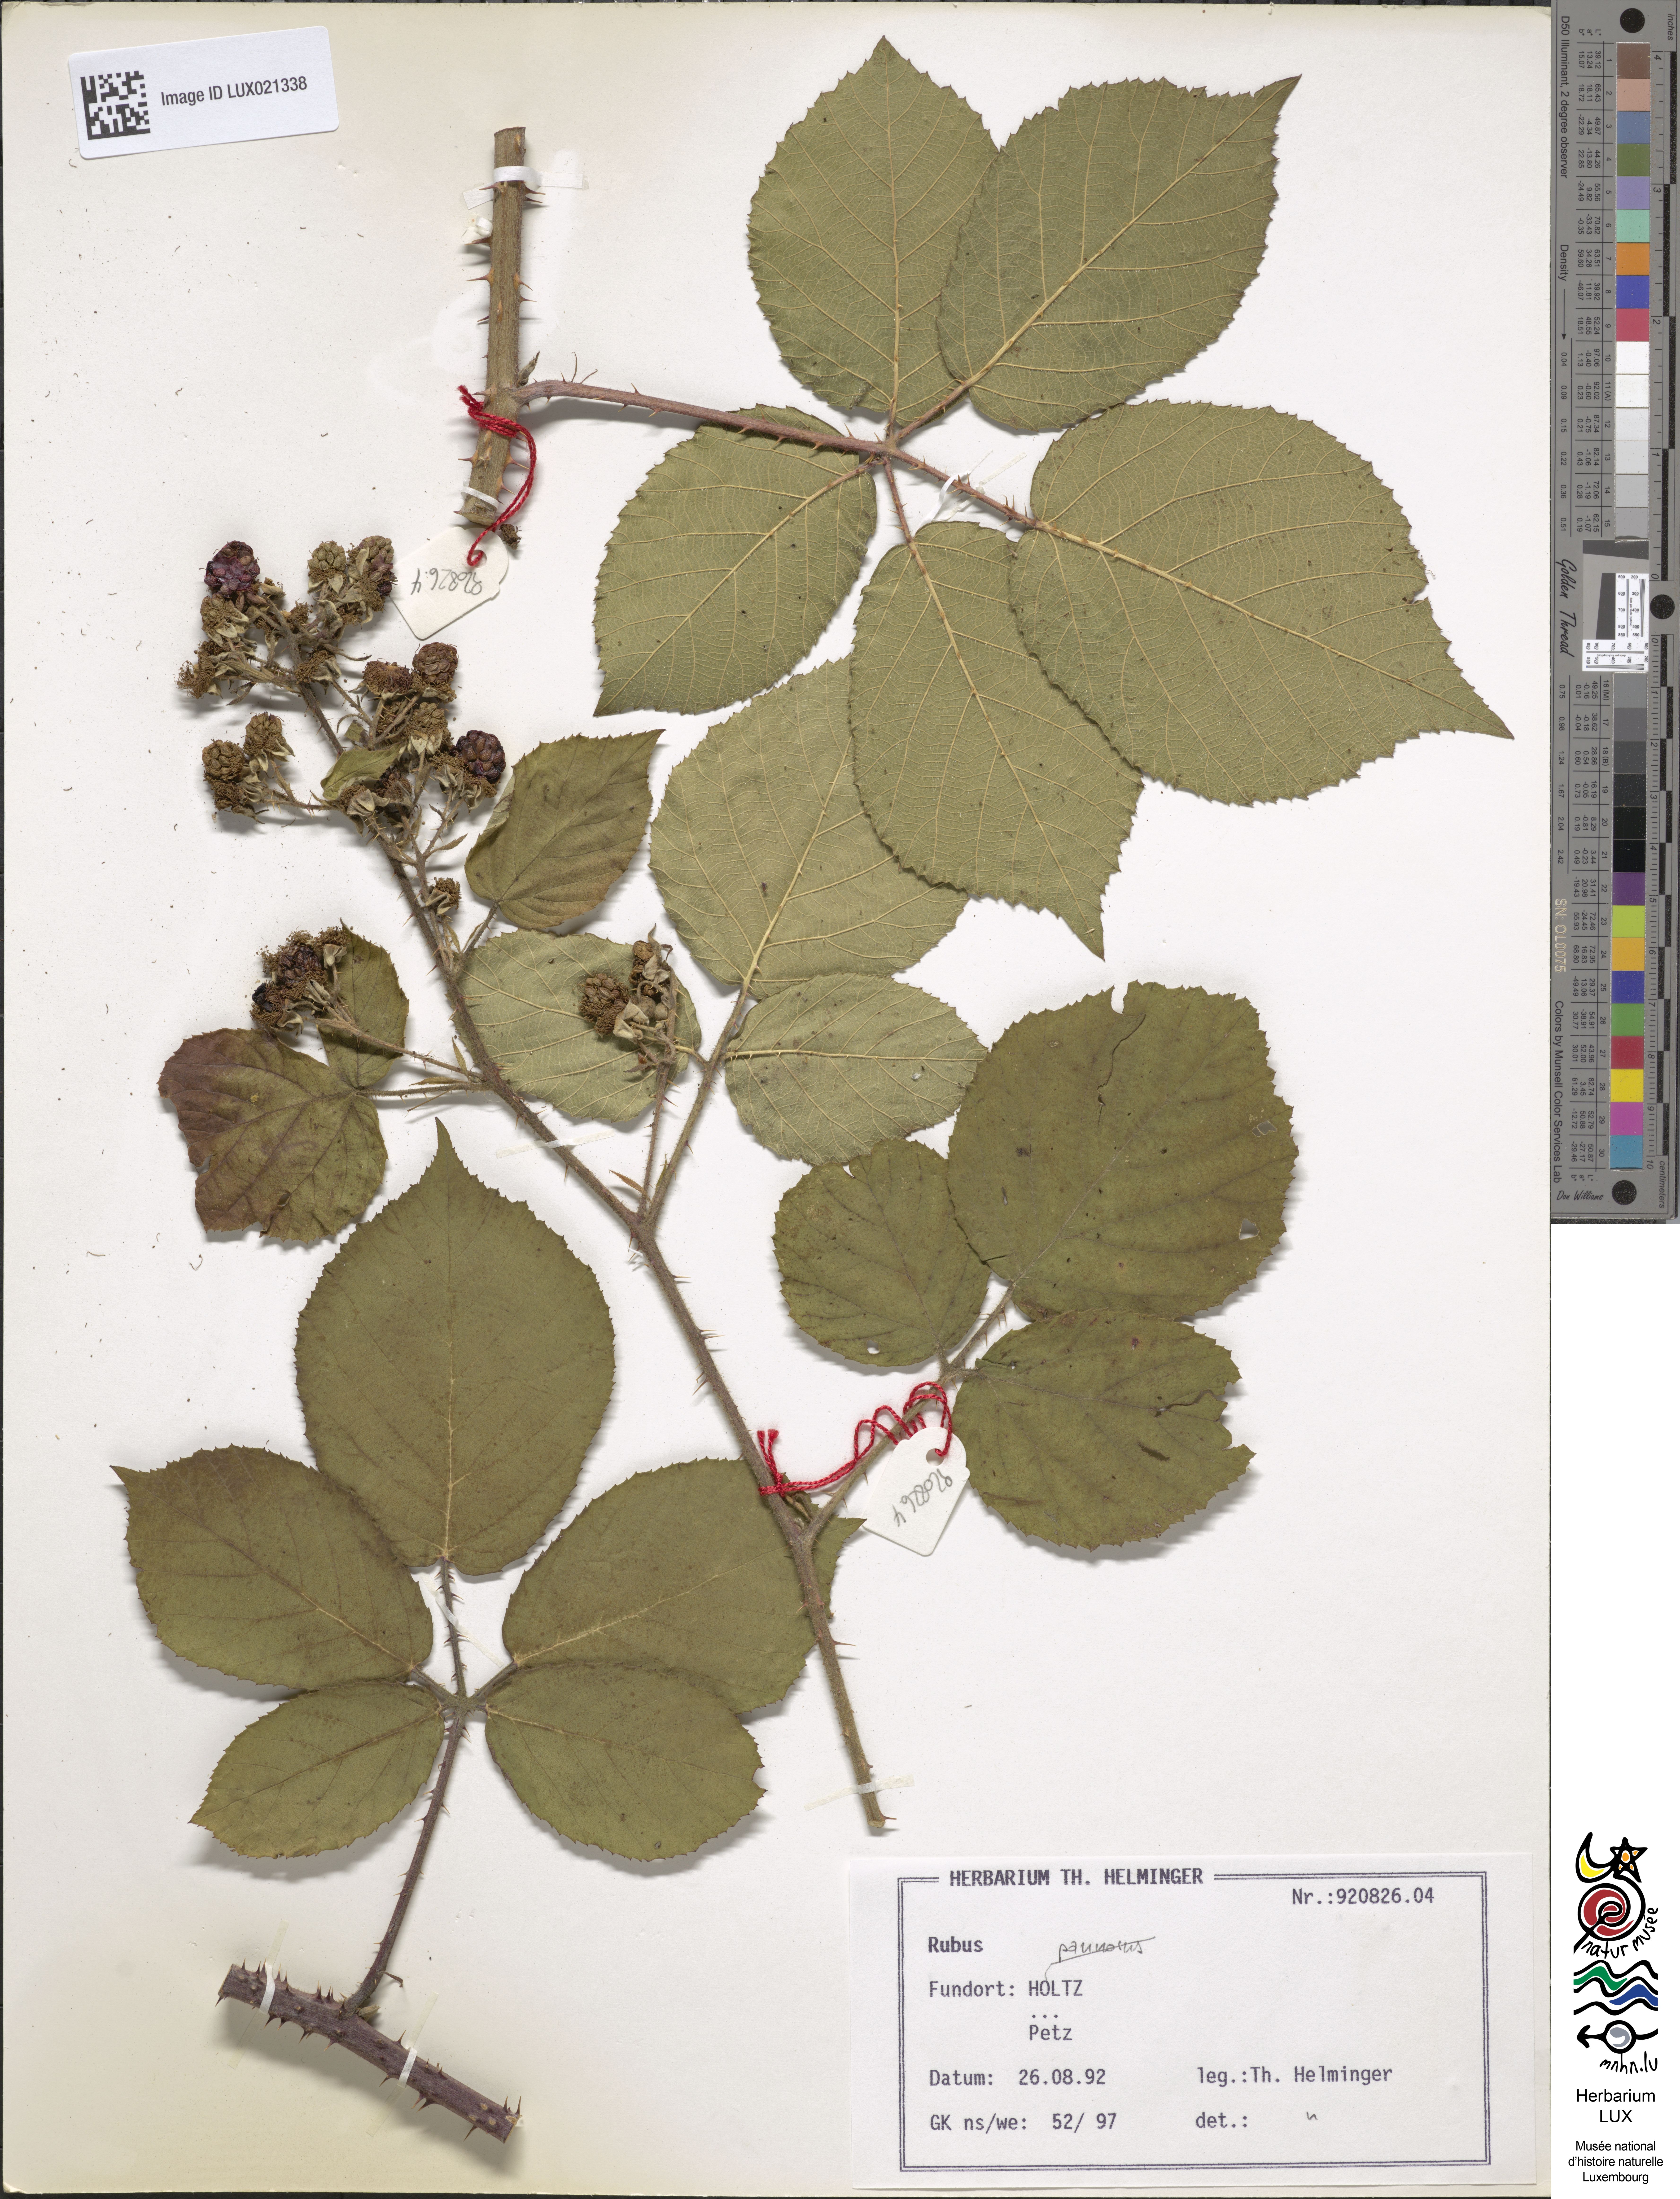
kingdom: Plantae
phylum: Tracheophyta
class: Magnoliopsida
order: Rosales
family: Rosaceae
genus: Rubus
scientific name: Rubus
